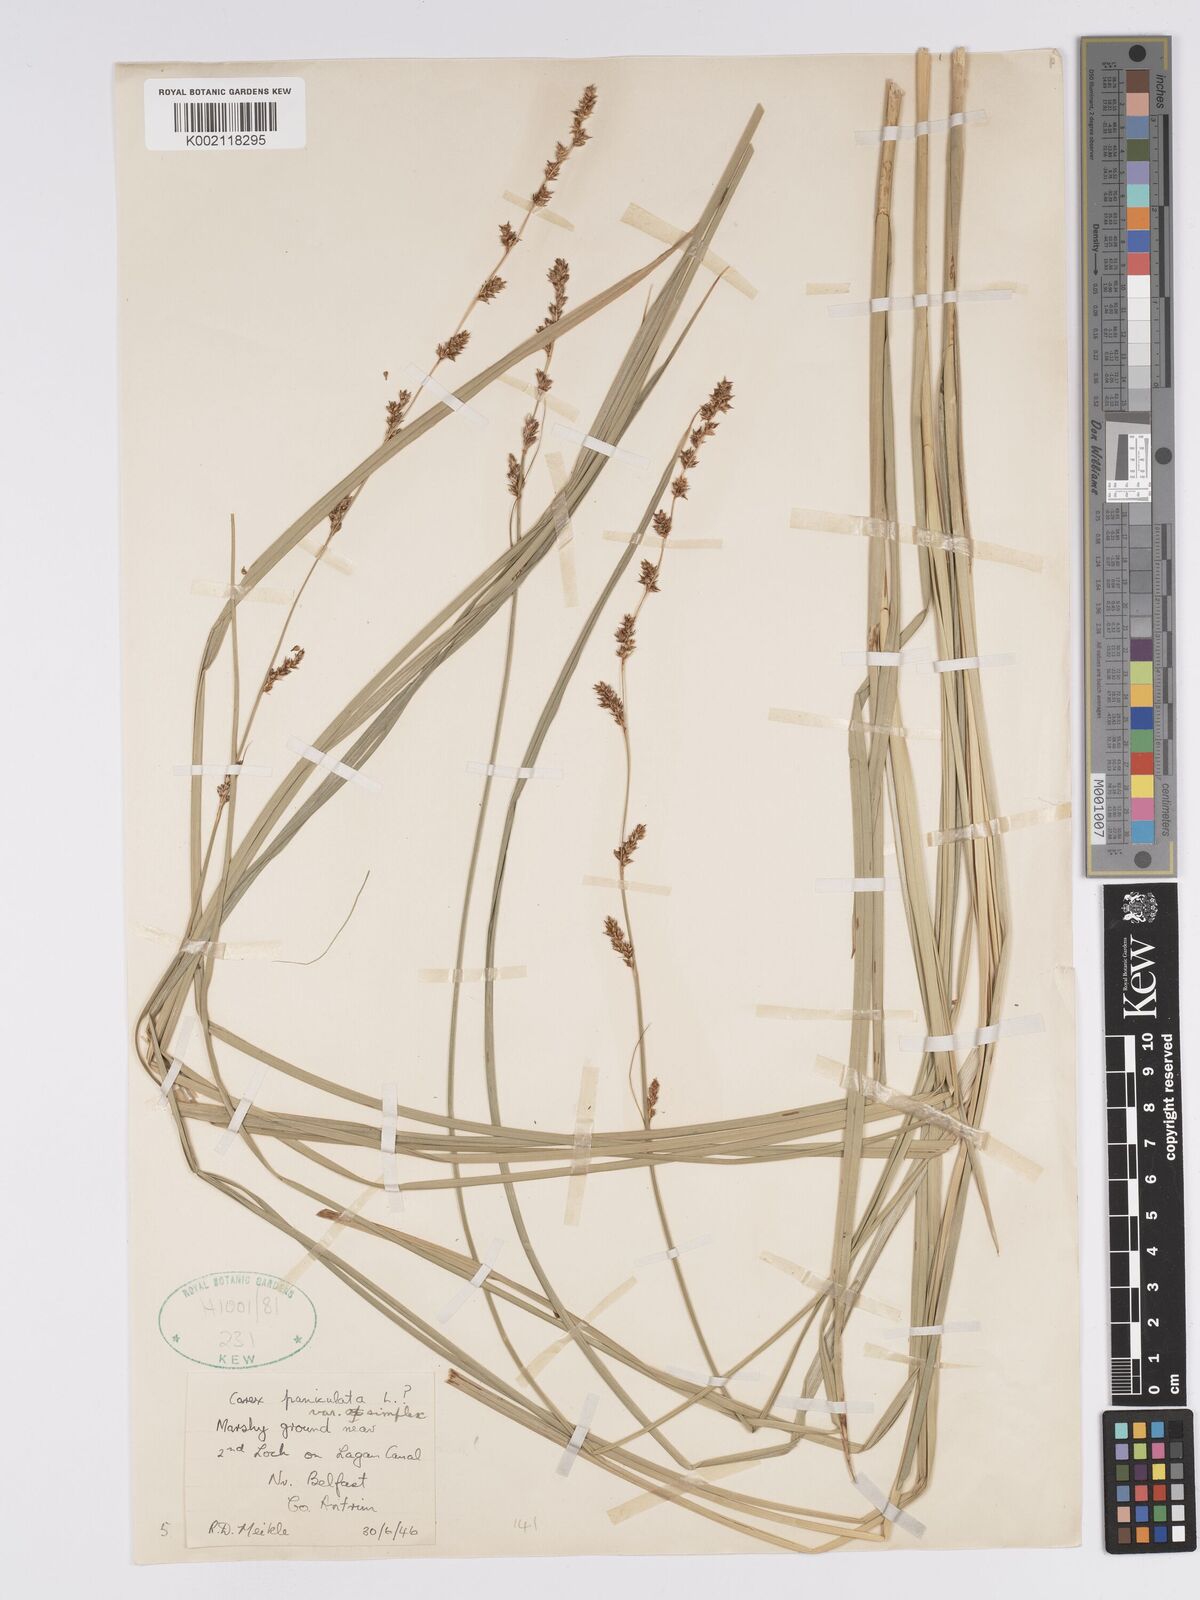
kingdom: Plantae
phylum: Tracheophyta
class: Liliopsida
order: Poales
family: Cyperaceae
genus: Carex
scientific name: Carex paniculata
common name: Greater tussock-sedge
